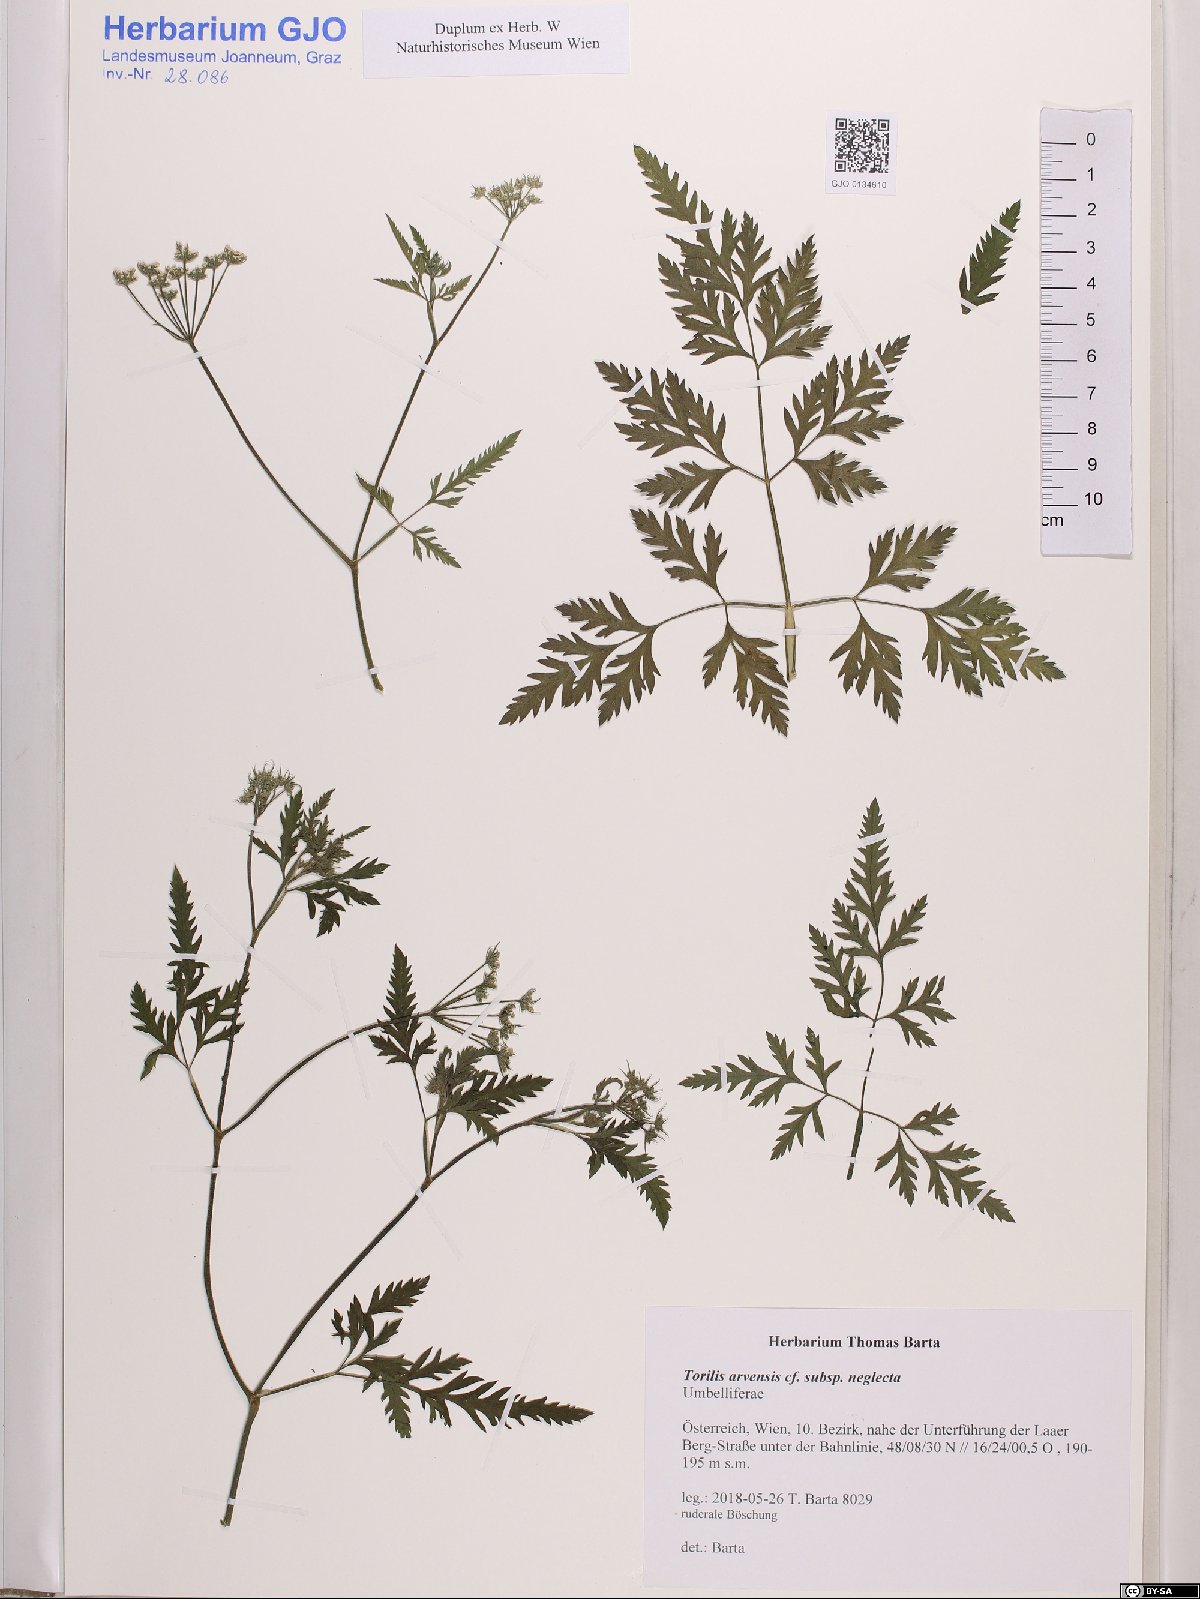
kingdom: Plantae
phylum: Tracheophyta
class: Magnoliopsida
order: Apiales
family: Apiaceae
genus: Torilis
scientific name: Torilis arvensis
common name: Spreading hedge-parsley
